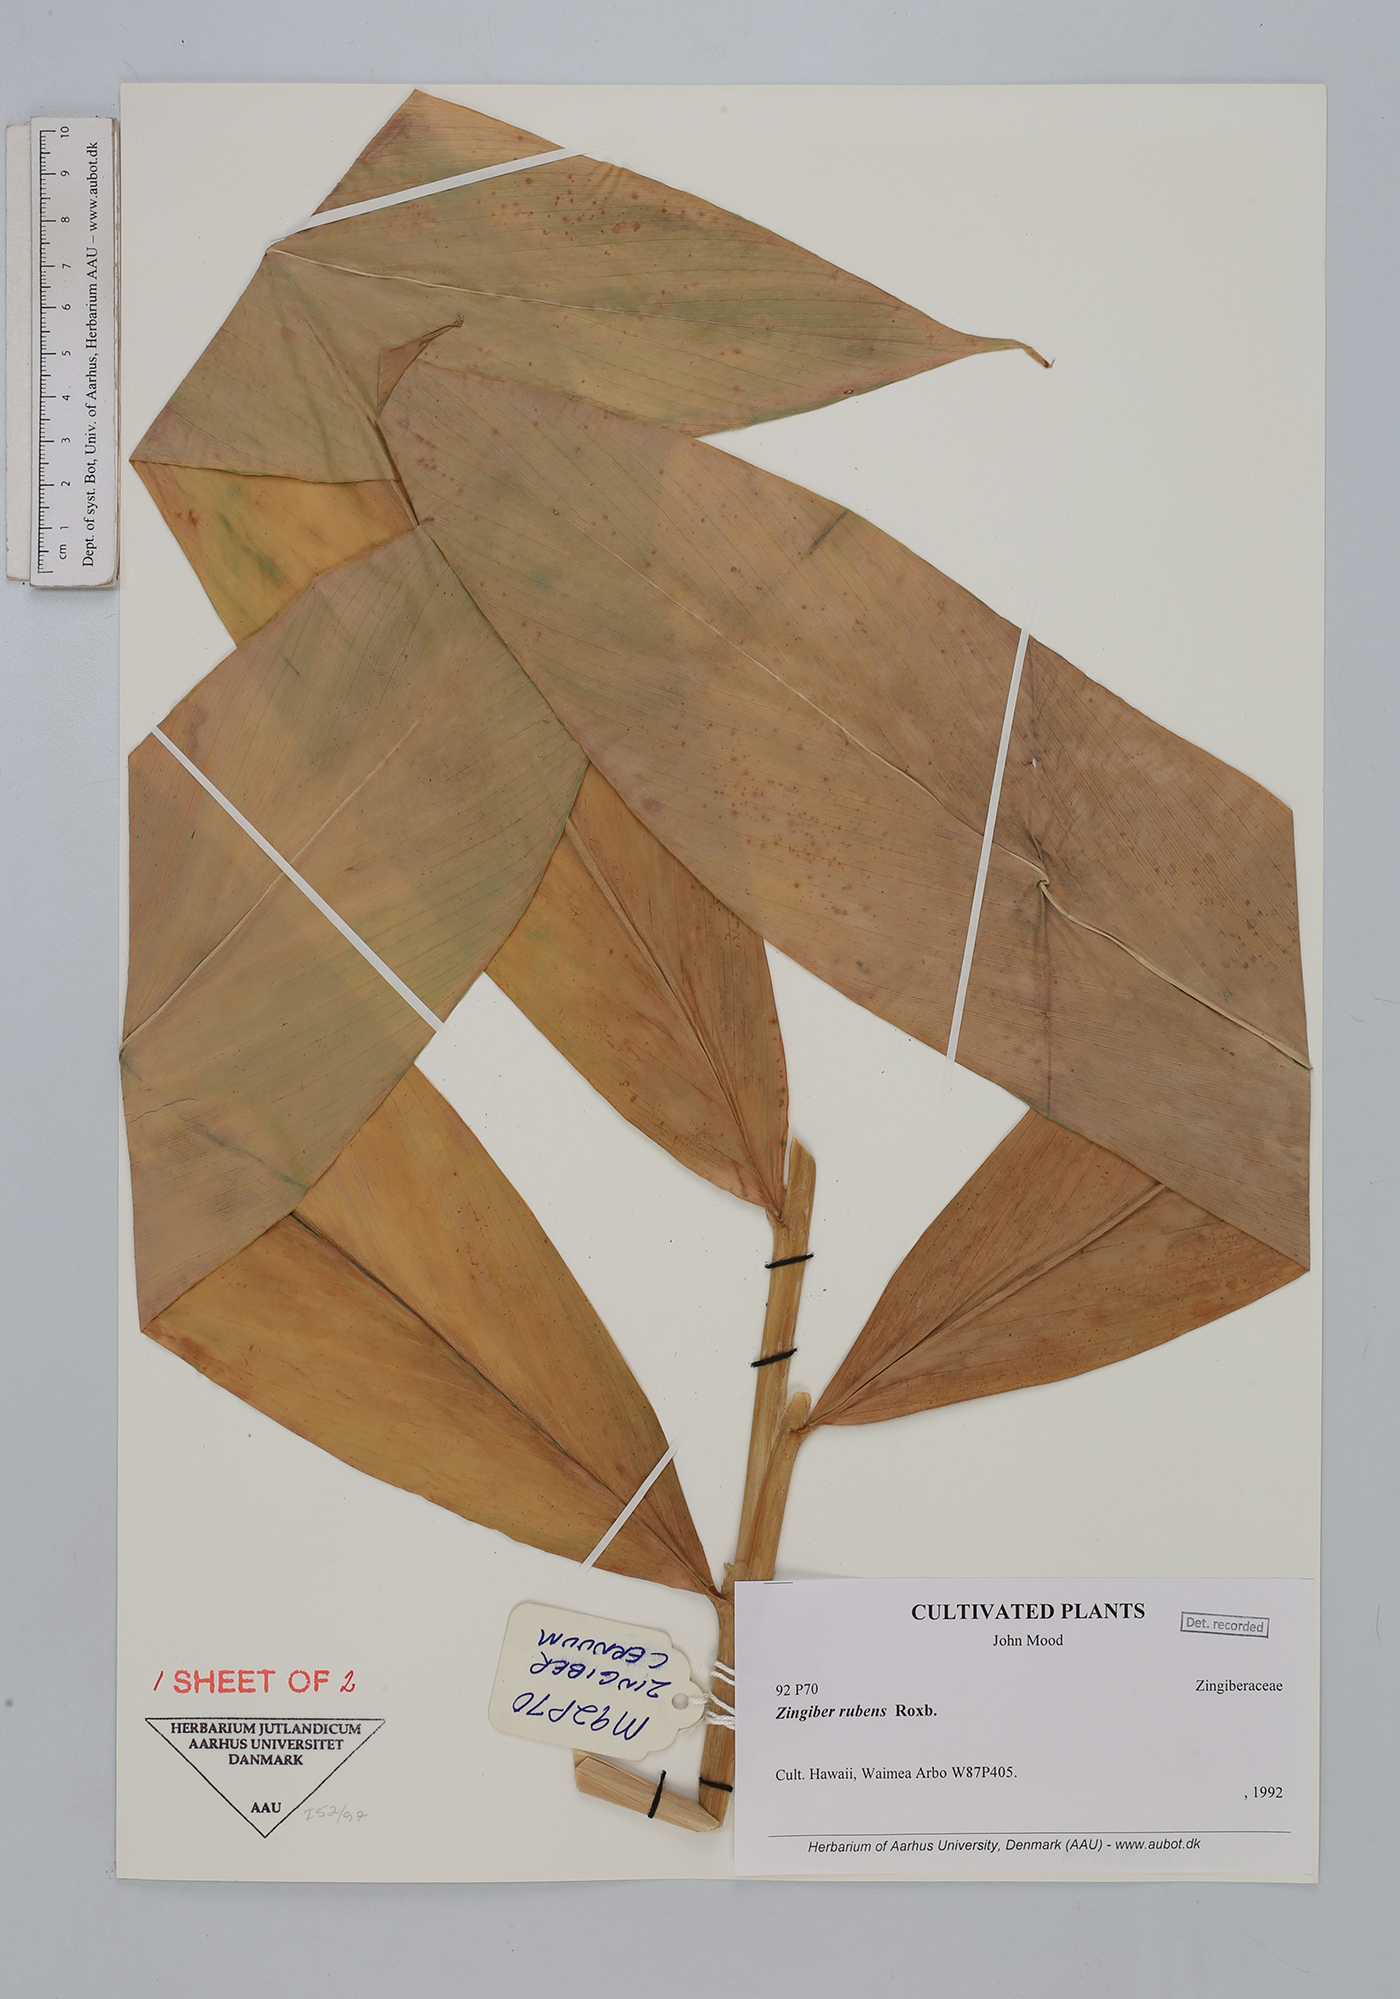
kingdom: Plantae
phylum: Tracheophyta
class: Liliopsida
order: Zingiberales
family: Zingiberaceae
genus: Zingiber
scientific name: Zingiber rubens
